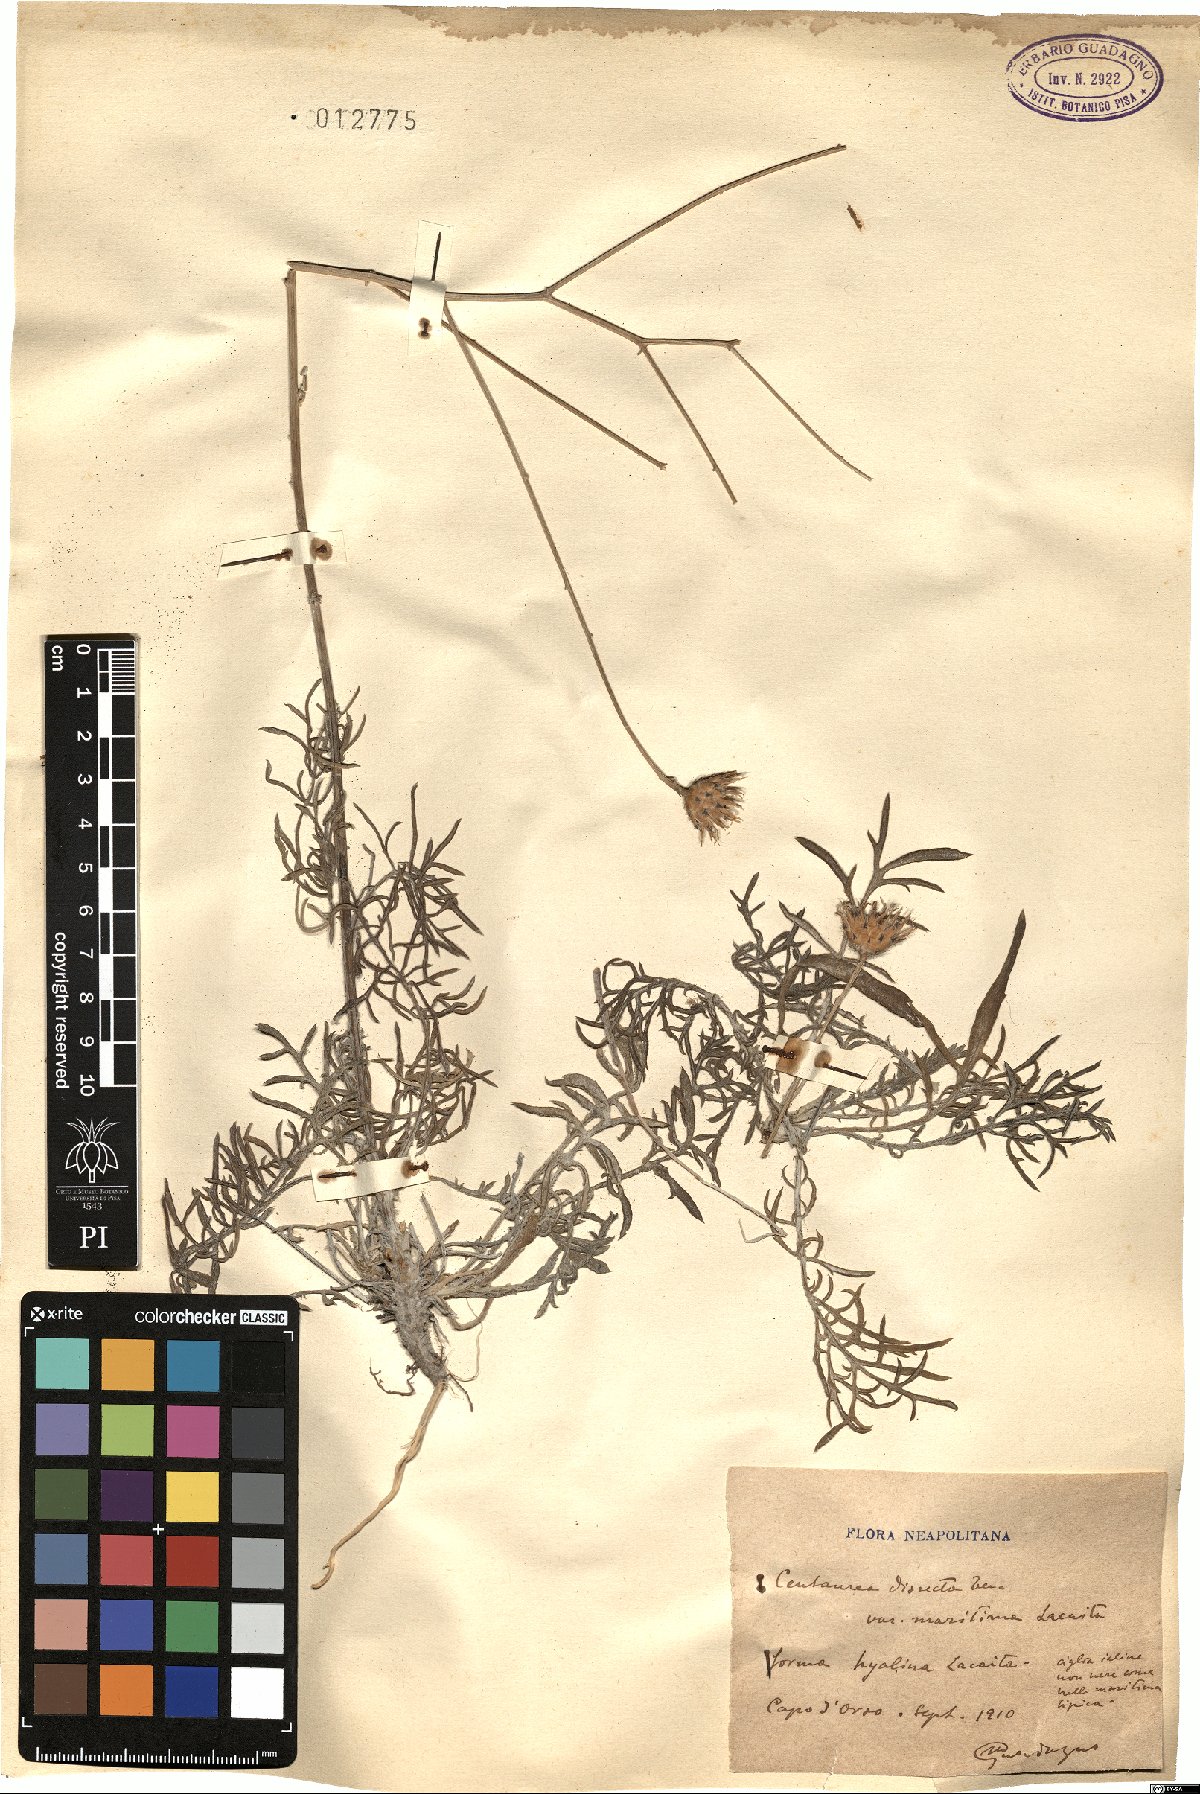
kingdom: Plantae
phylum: Tracheophyta
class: Magnoliopsida
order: Asterales
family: Asteraceae
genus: Centaurea
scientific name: Centaurea tenorei
